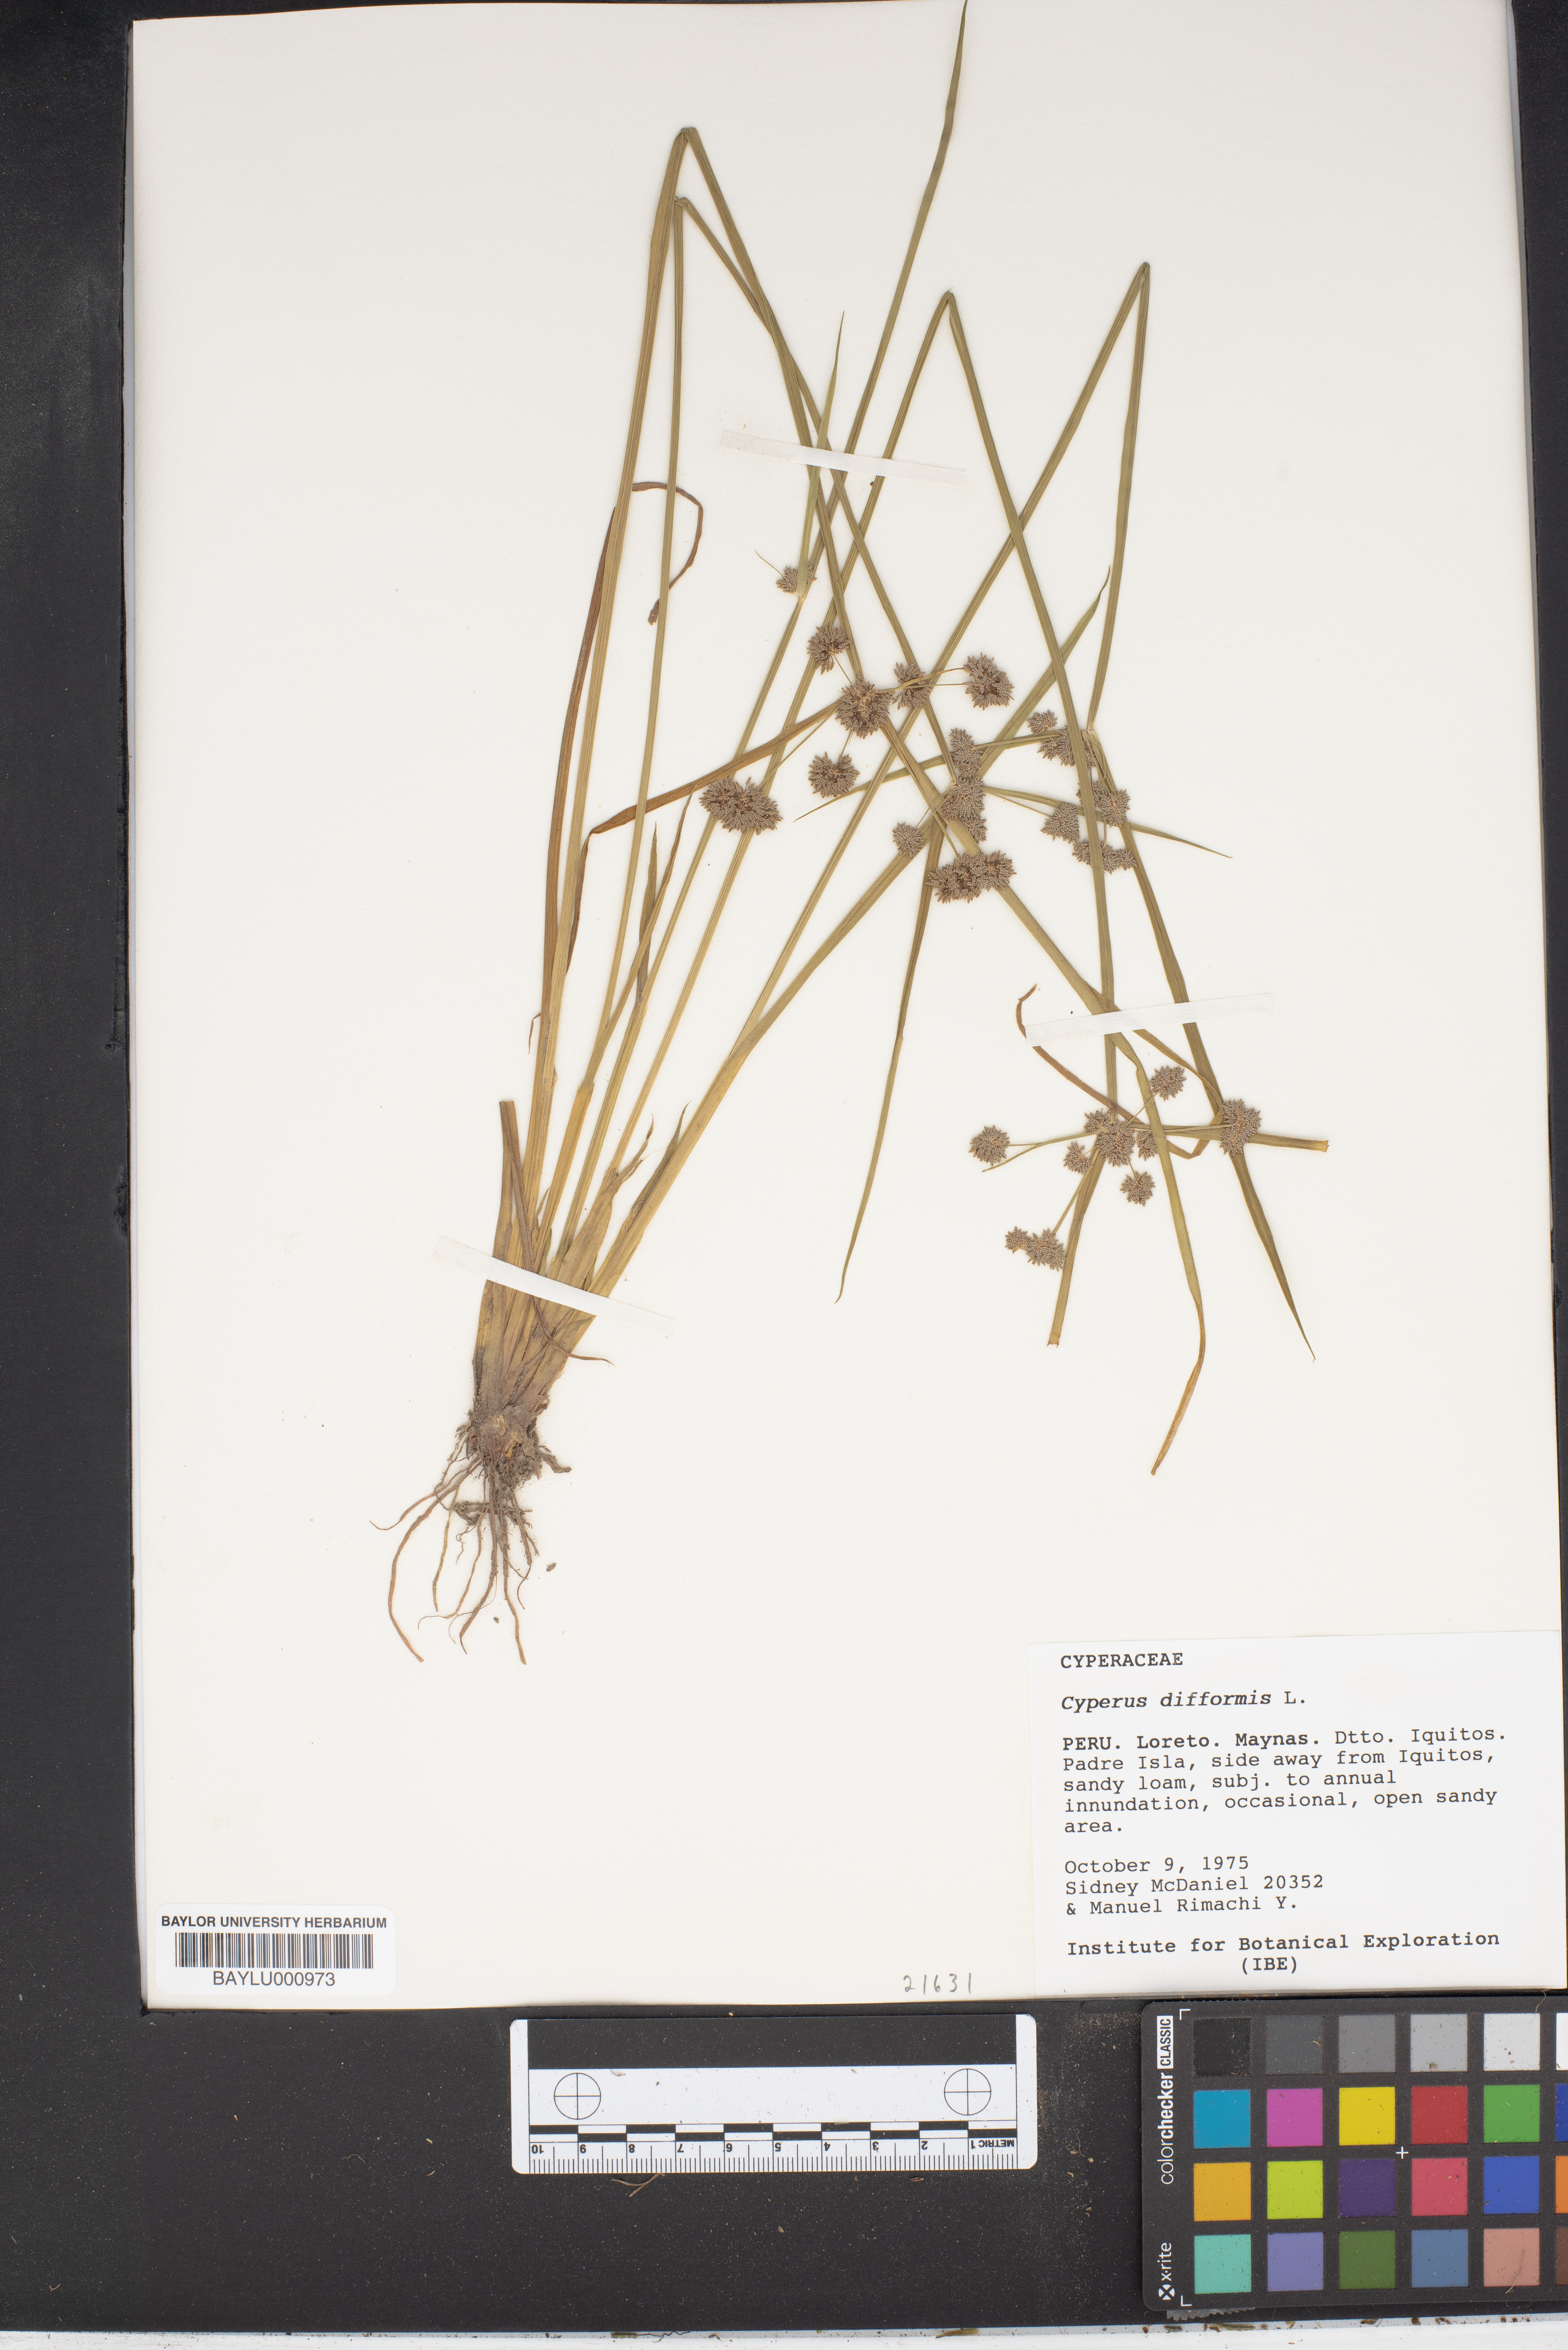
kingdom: Plantae
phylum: Tracheophyta
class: Liliopsida
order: Poales
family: Cyperaceae
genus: Cyperus
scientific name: Cyperus difformis
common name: Variable flatsedge
